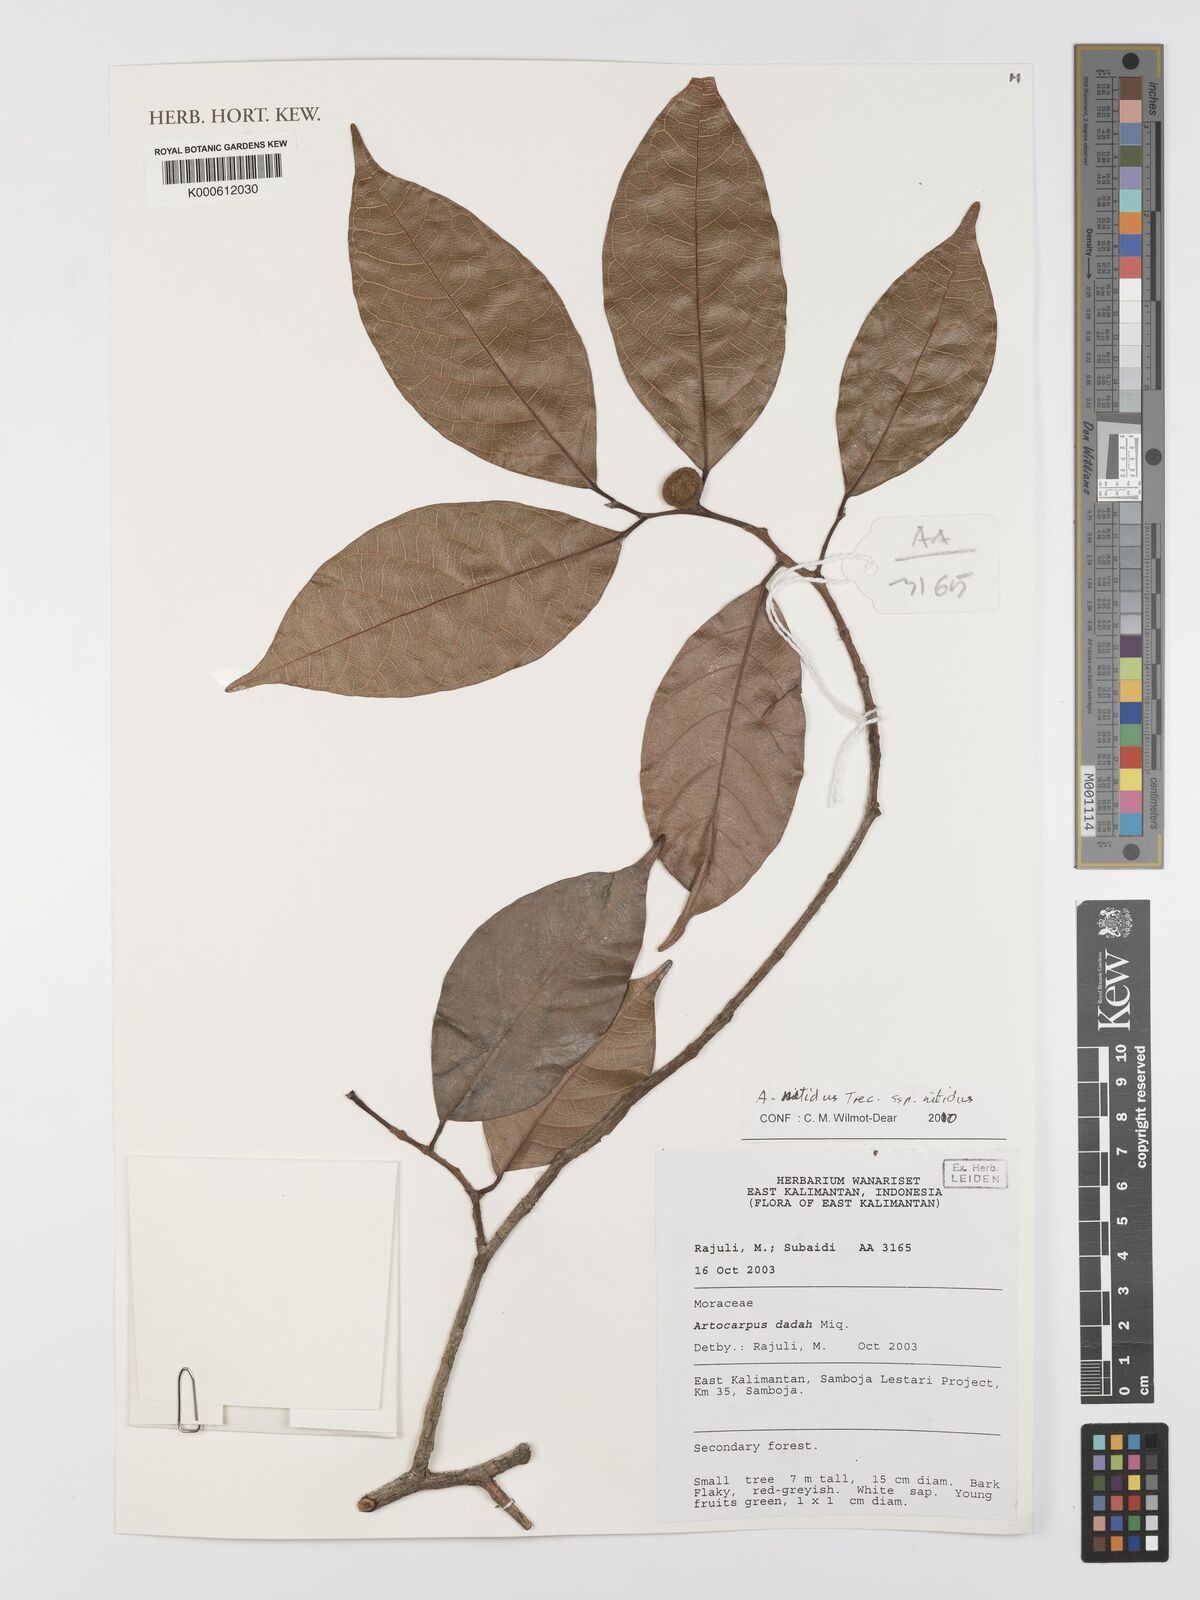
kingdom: Plantae
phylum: Tracheophyta
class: Magnoliopsida
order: Rosales
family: Moraceae
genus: Artocarpus
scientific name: Artocarpus lamellosus
